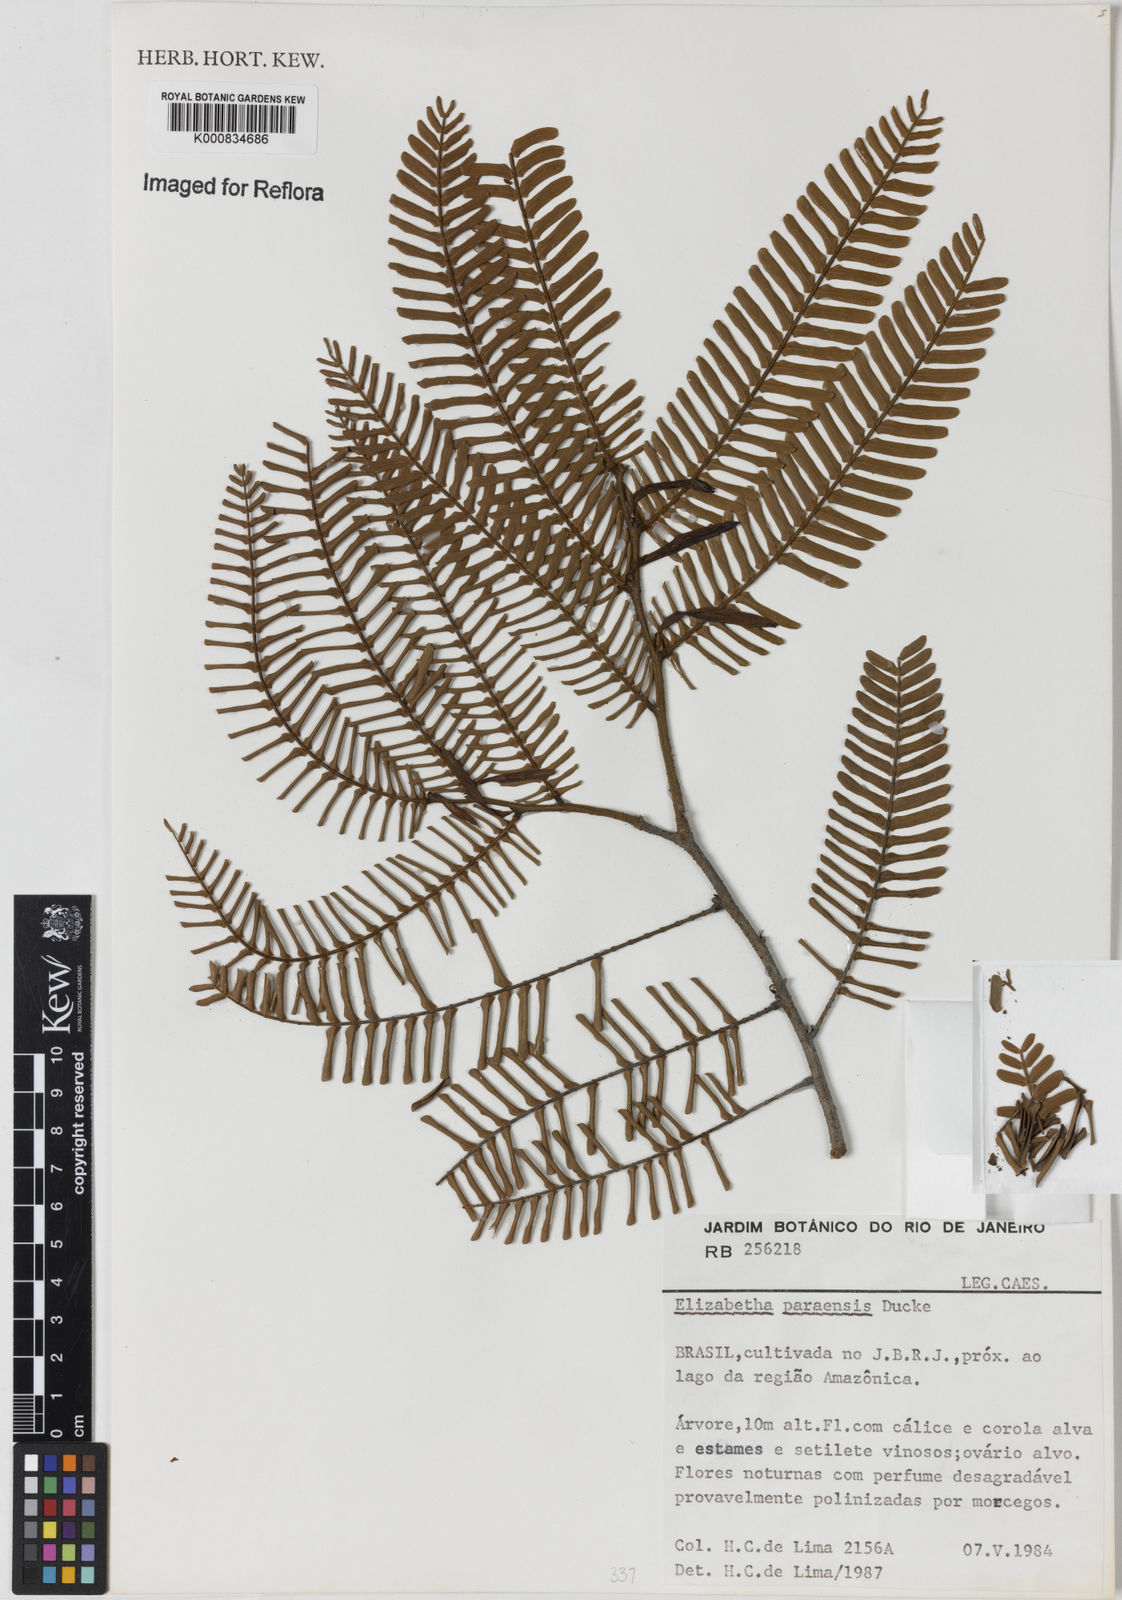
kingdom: Plantae
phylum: Tracheophyta
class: Magnoliopsida
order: Fabales
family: Fabaceae
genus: Paloue
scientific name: Paloue paraensis
